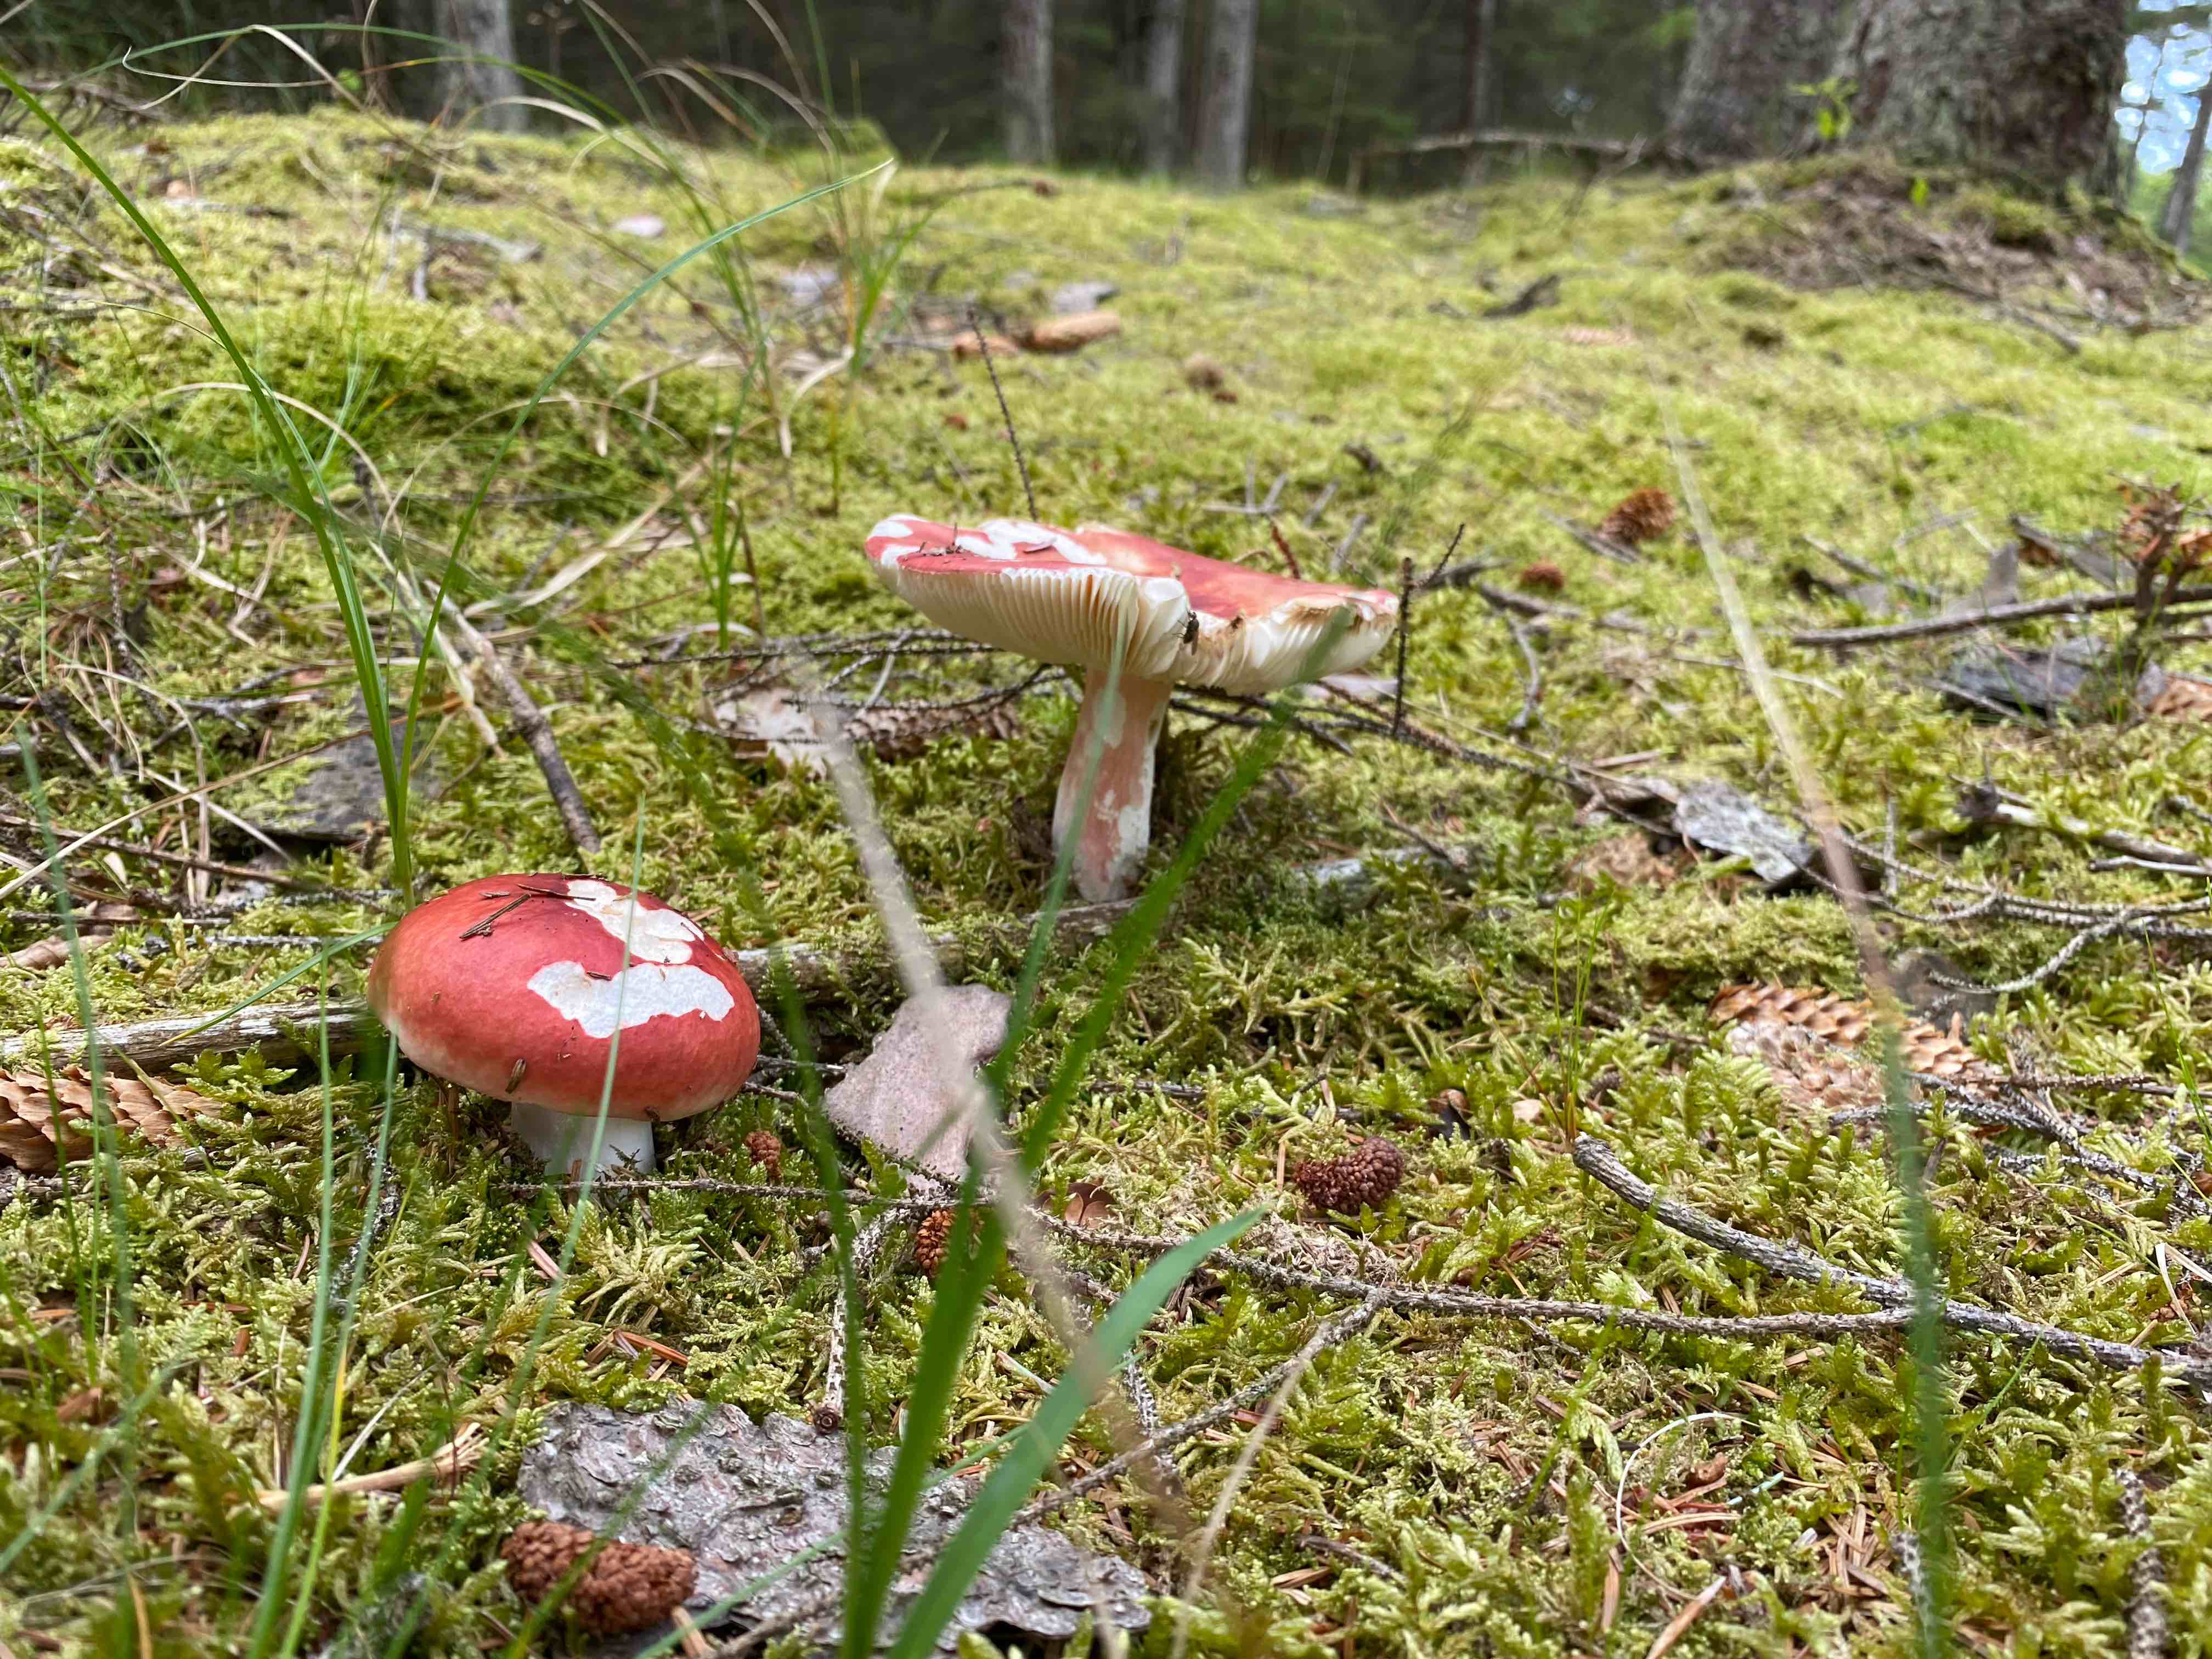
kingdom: Fungi
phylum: Basidiomycota
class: Agaricomycetes
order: Russulales
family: Russulaceae
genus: Russula
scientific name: Russula paludosa
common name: prægtig skørhat
